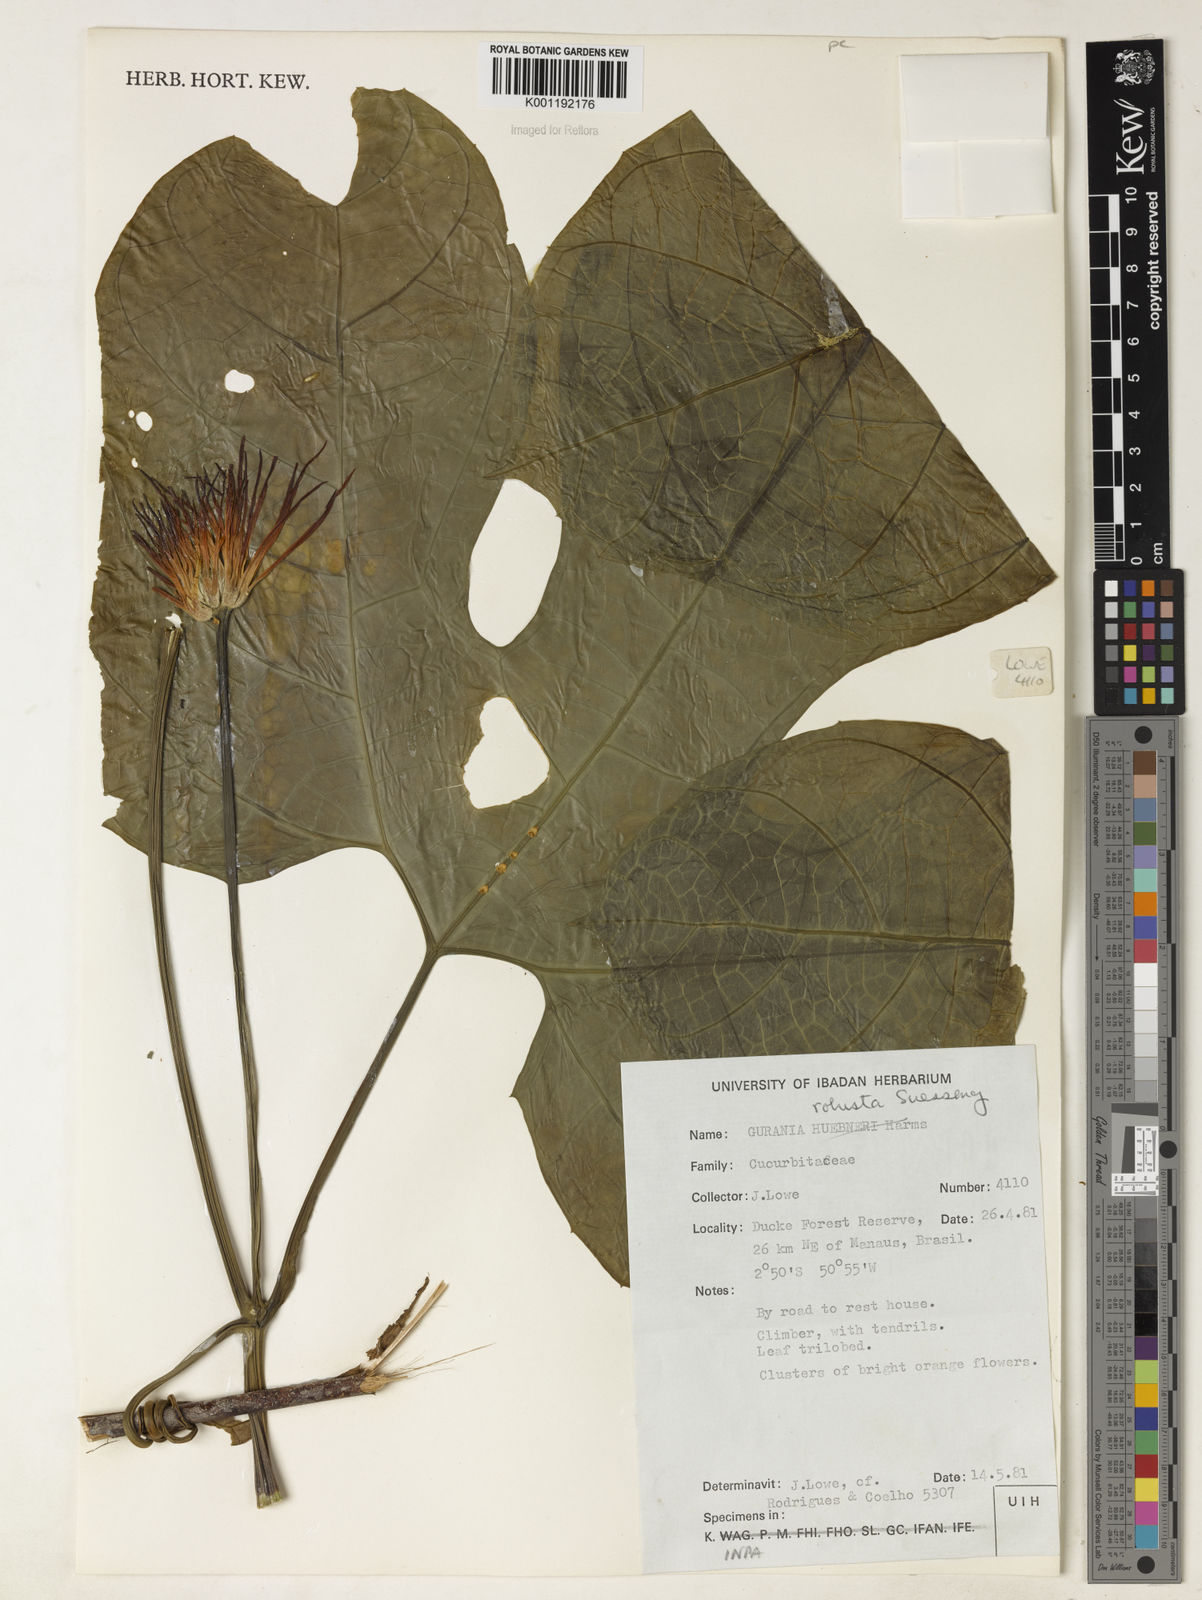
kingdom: Plantae
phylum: Tracheophyta
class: Magnoliopsida
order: Cucurbitales
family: Cucurbitaceae
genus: Gurania
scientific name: Gurania
